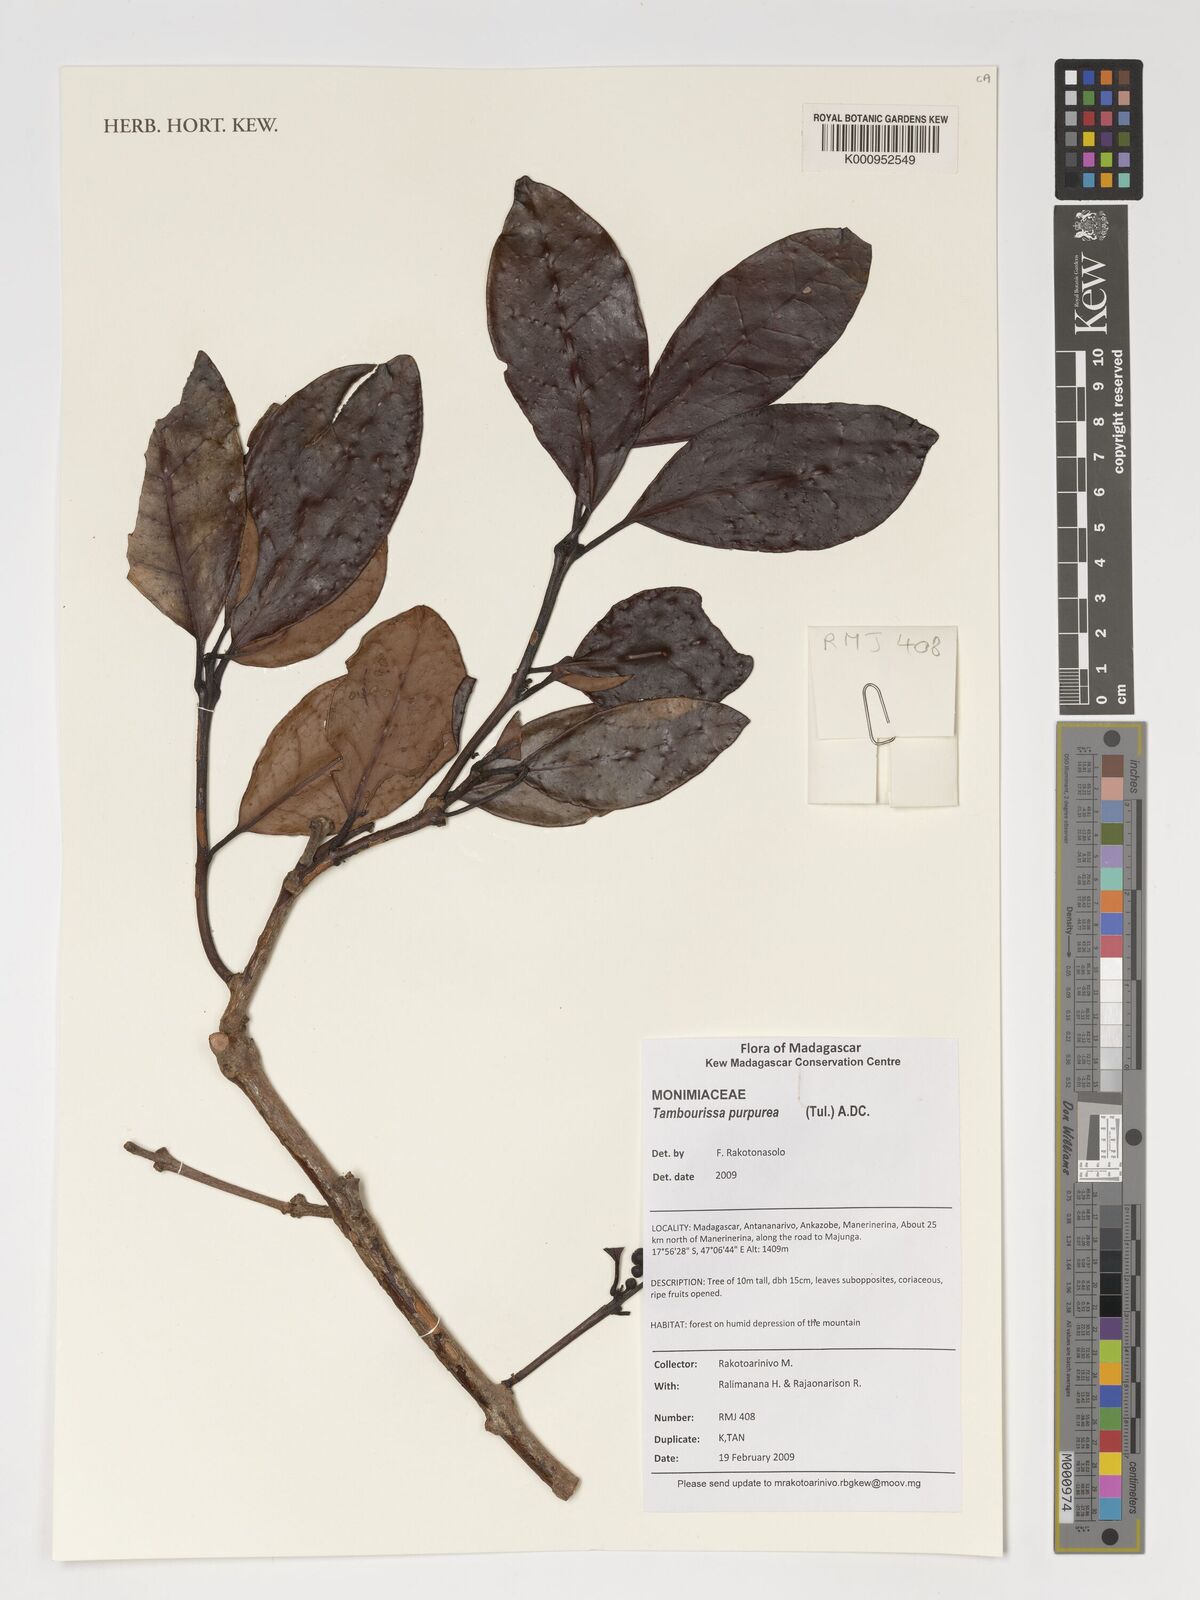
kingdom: Plantae
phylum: Tracheophyta
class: Magnoliopsida
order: Laurales
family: Monimiaceae
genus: Tambourissa
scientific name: Tambourissa purpurea
